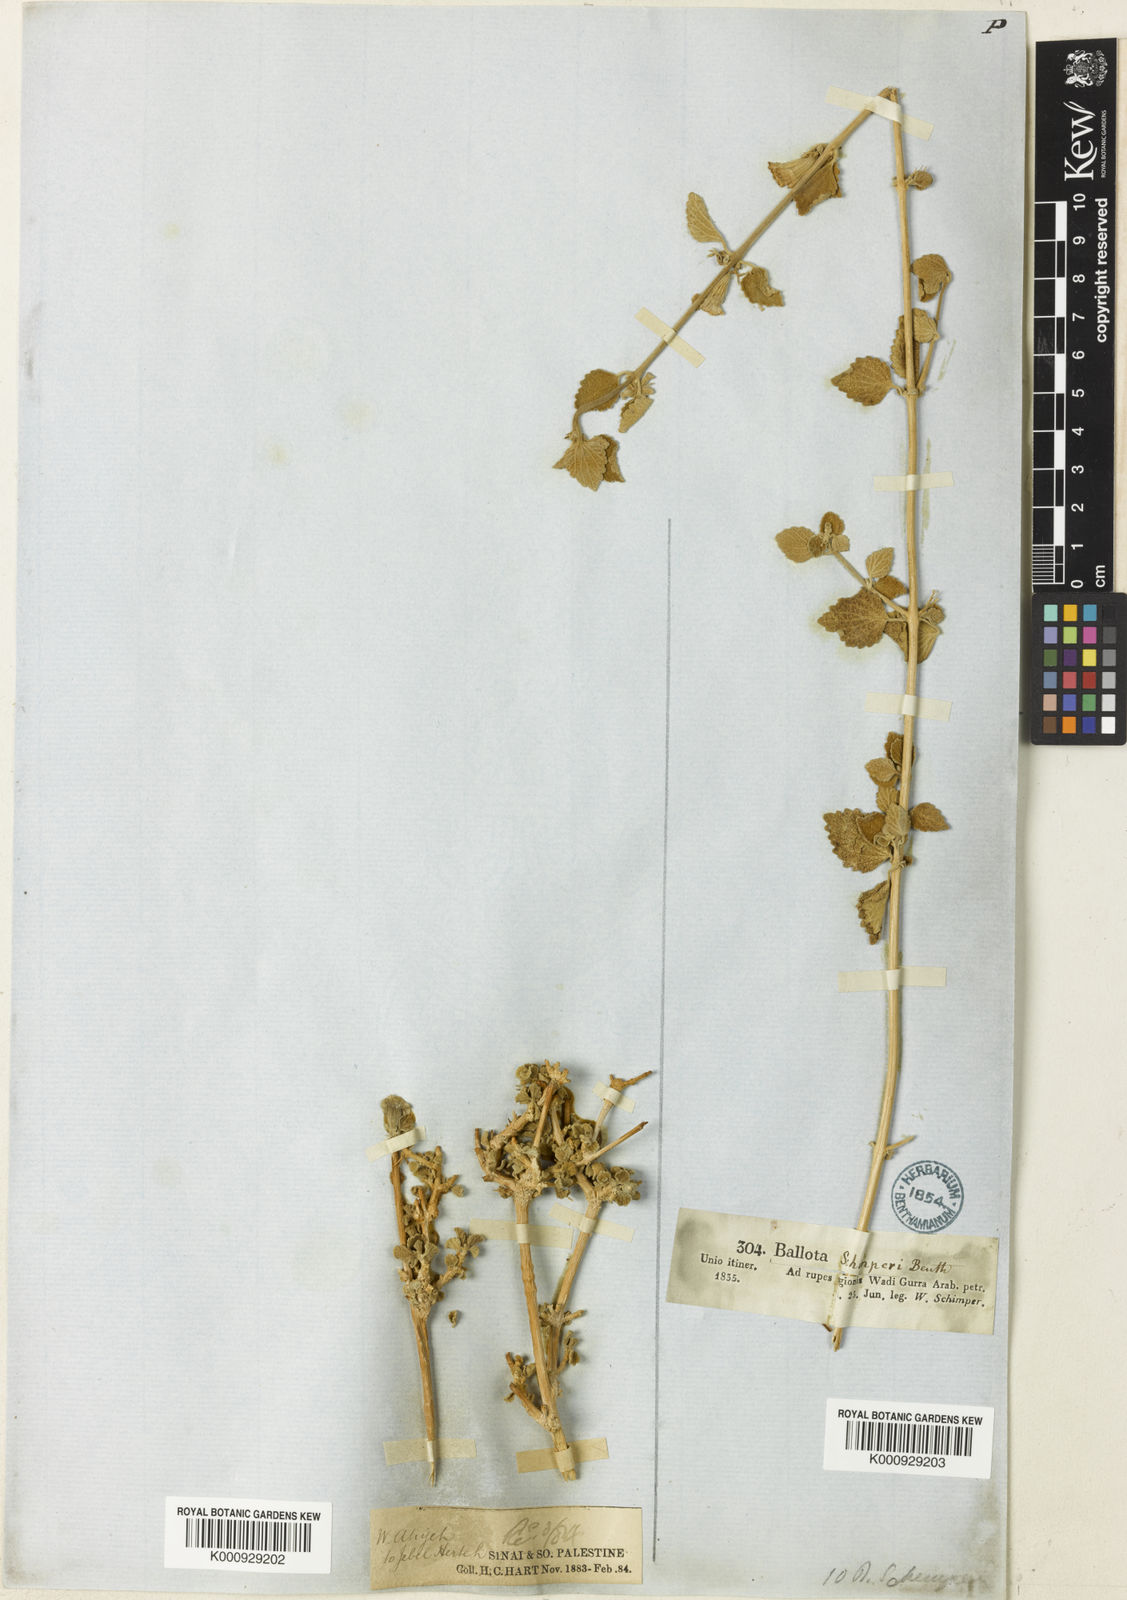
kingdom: Plantae
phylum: Tracheophyta
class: Magnoliopsida
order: Lamiales
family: Lamiaceae
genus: Otostegia
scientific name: Otostegia fruticosa
